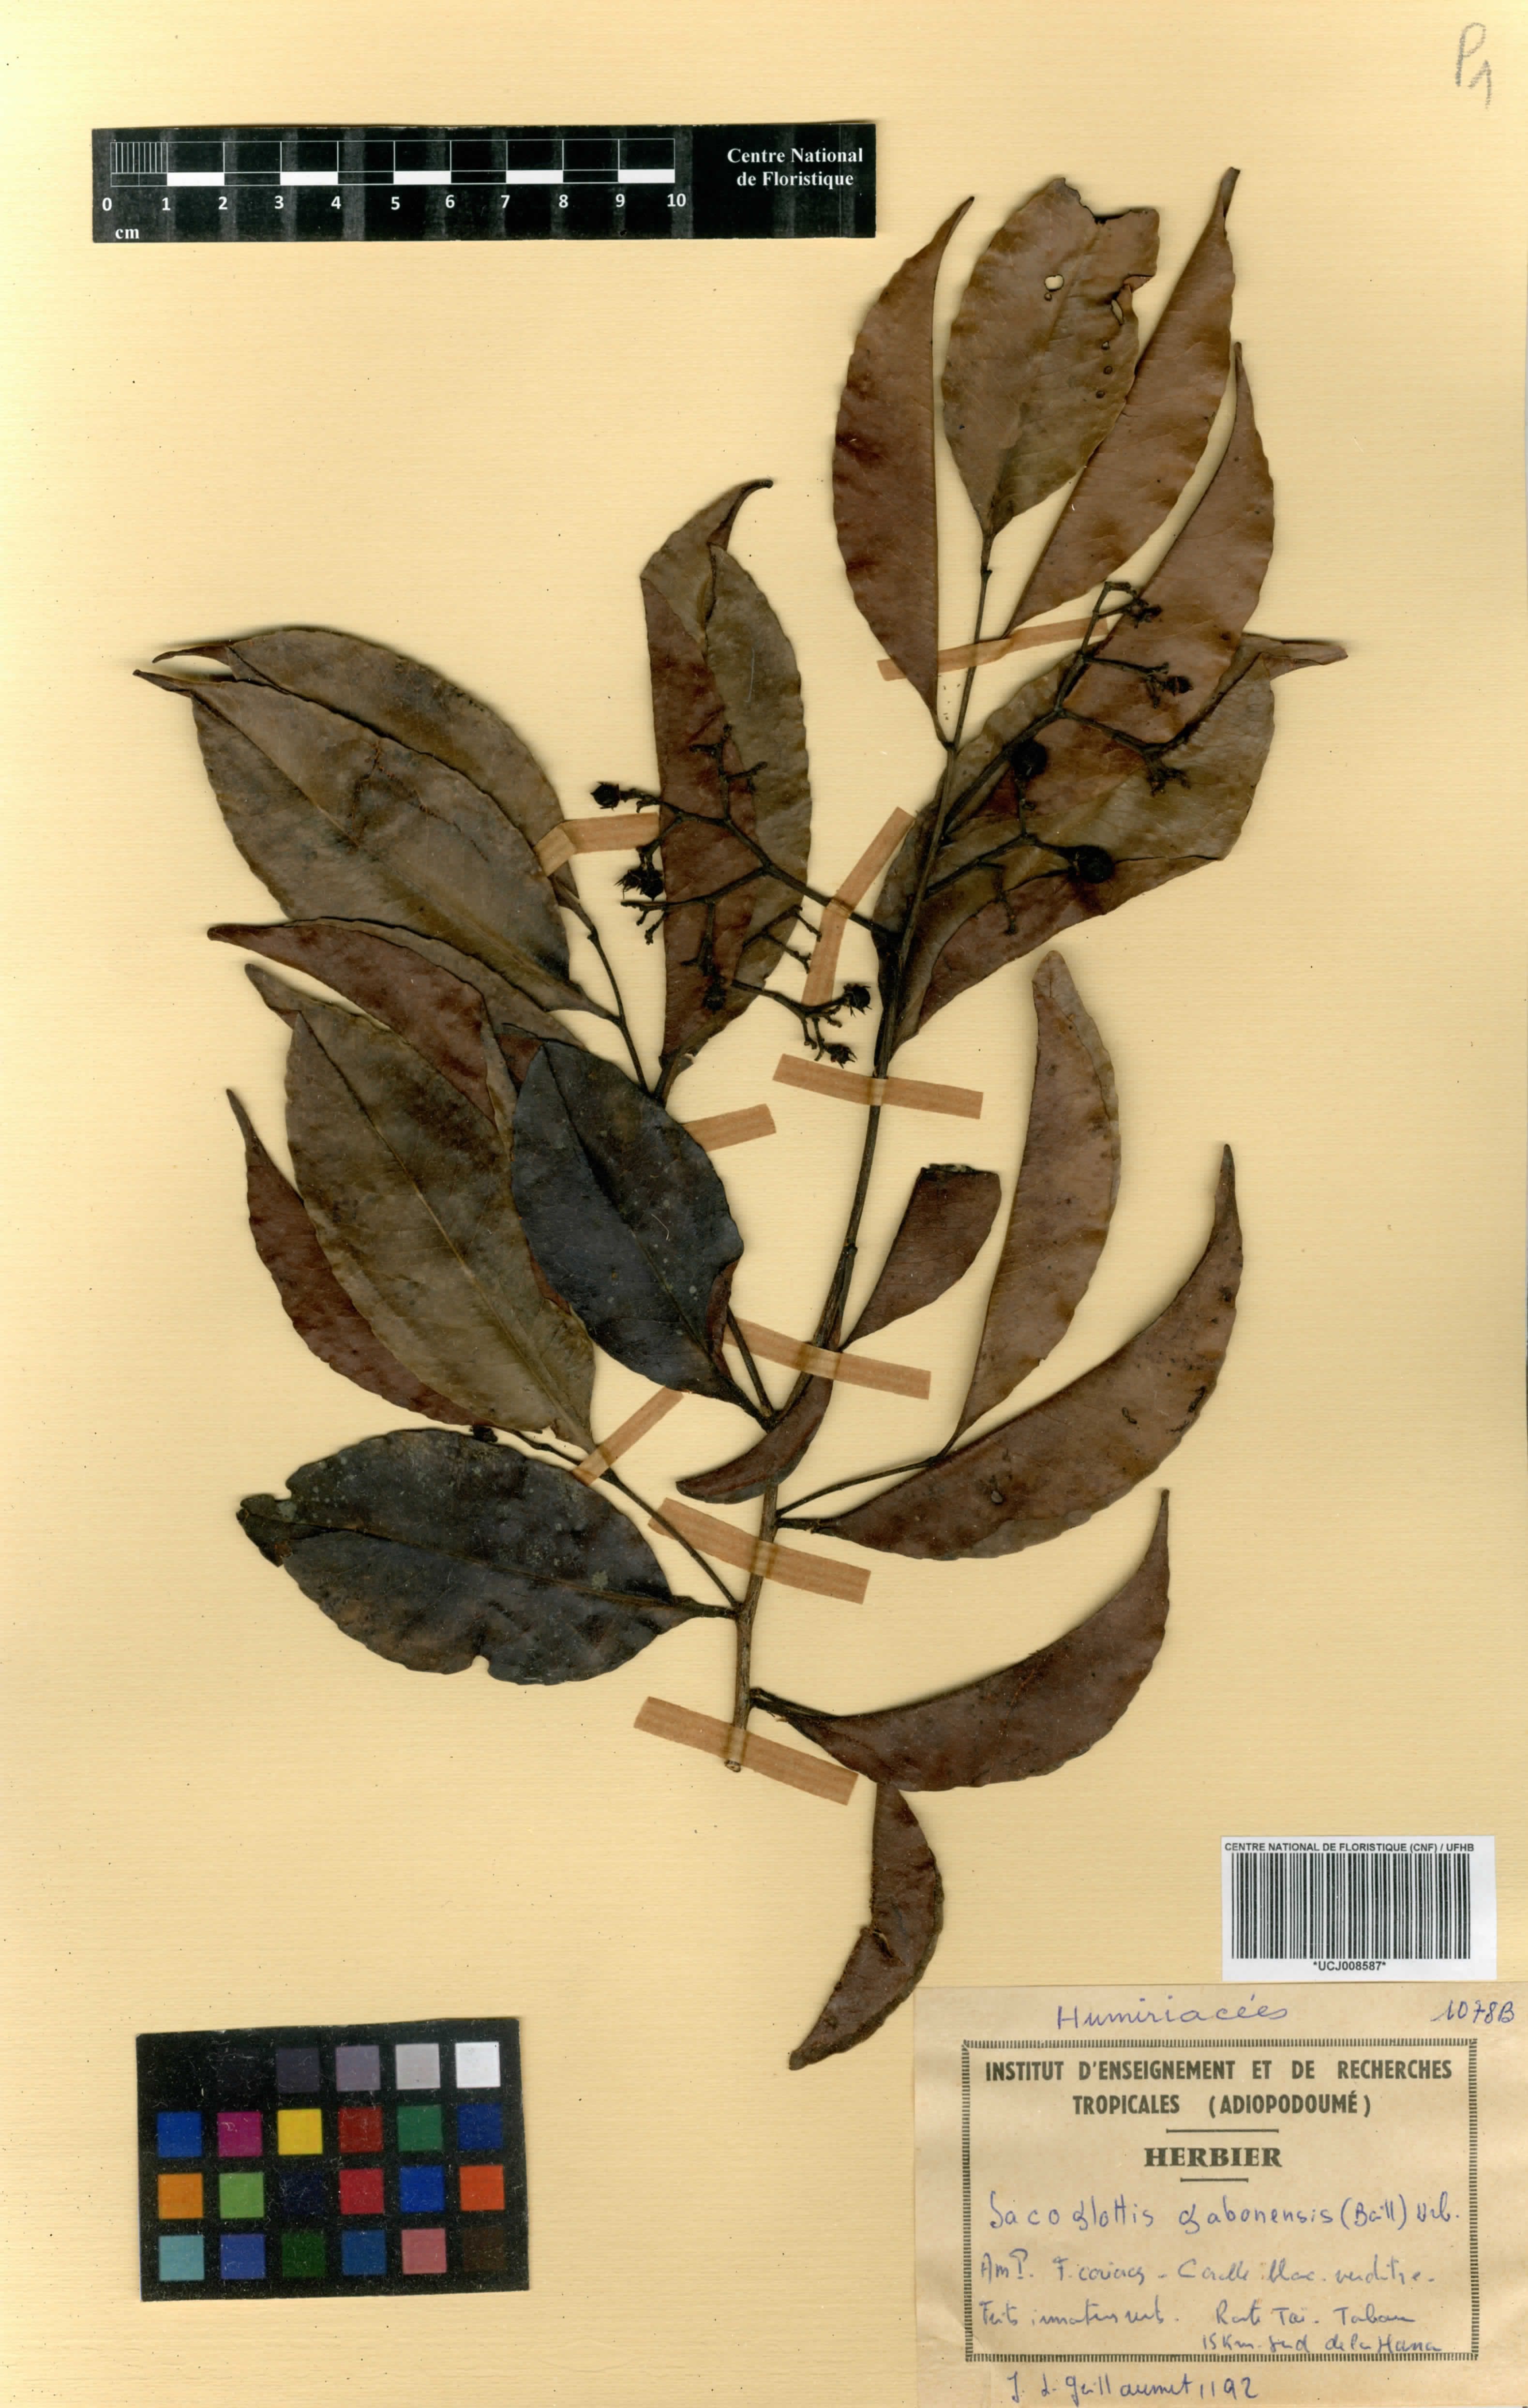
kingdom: Plantae
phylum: Tracheophyta
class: Magnoliopsida
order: Malpighiales
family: Humiriaceae
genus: Sacoglottis
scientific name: Sacoglottis gabonensis
